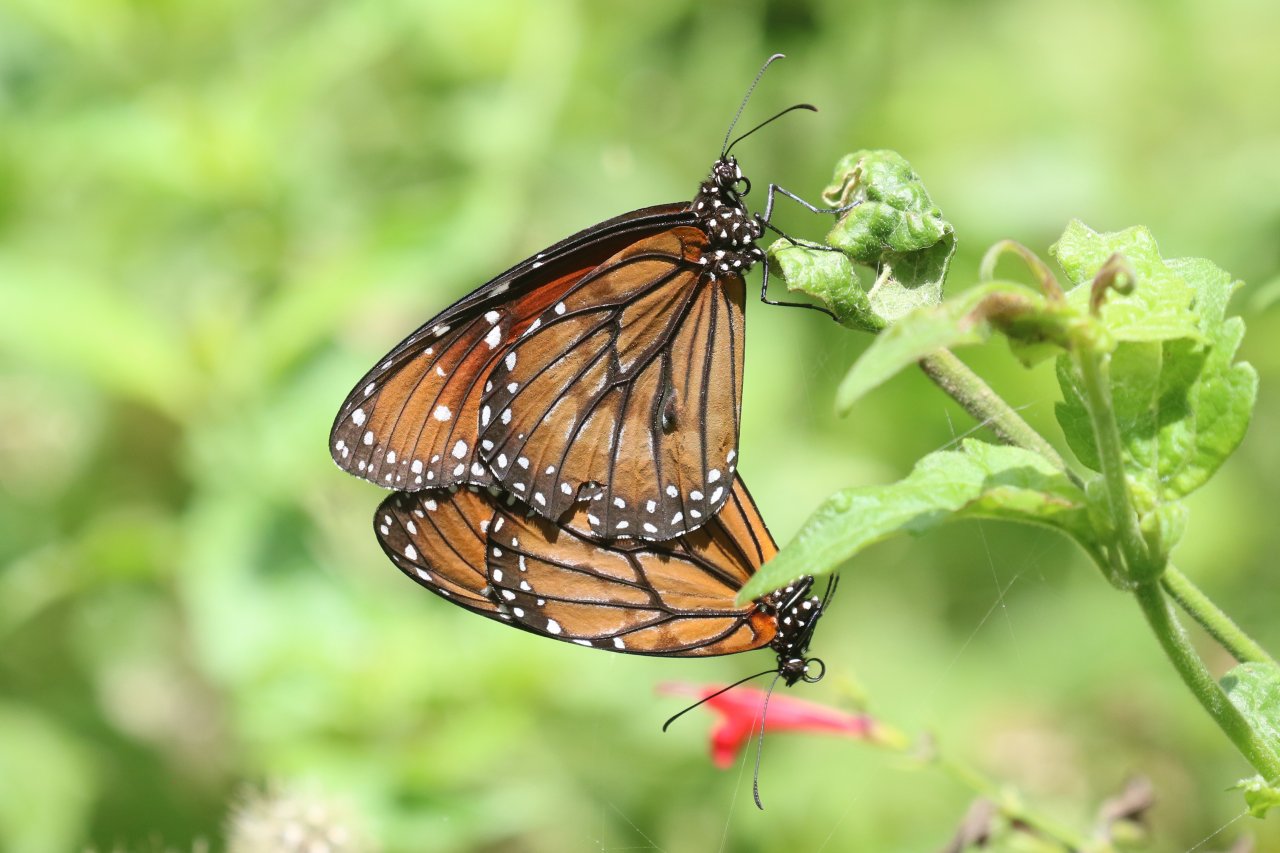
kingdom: Animalia
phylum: Arthropoda
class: Insecta
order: Lepidoptera
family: Nymphalidae
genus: Danaus
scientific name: Danaus eresimus
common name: Soldier
